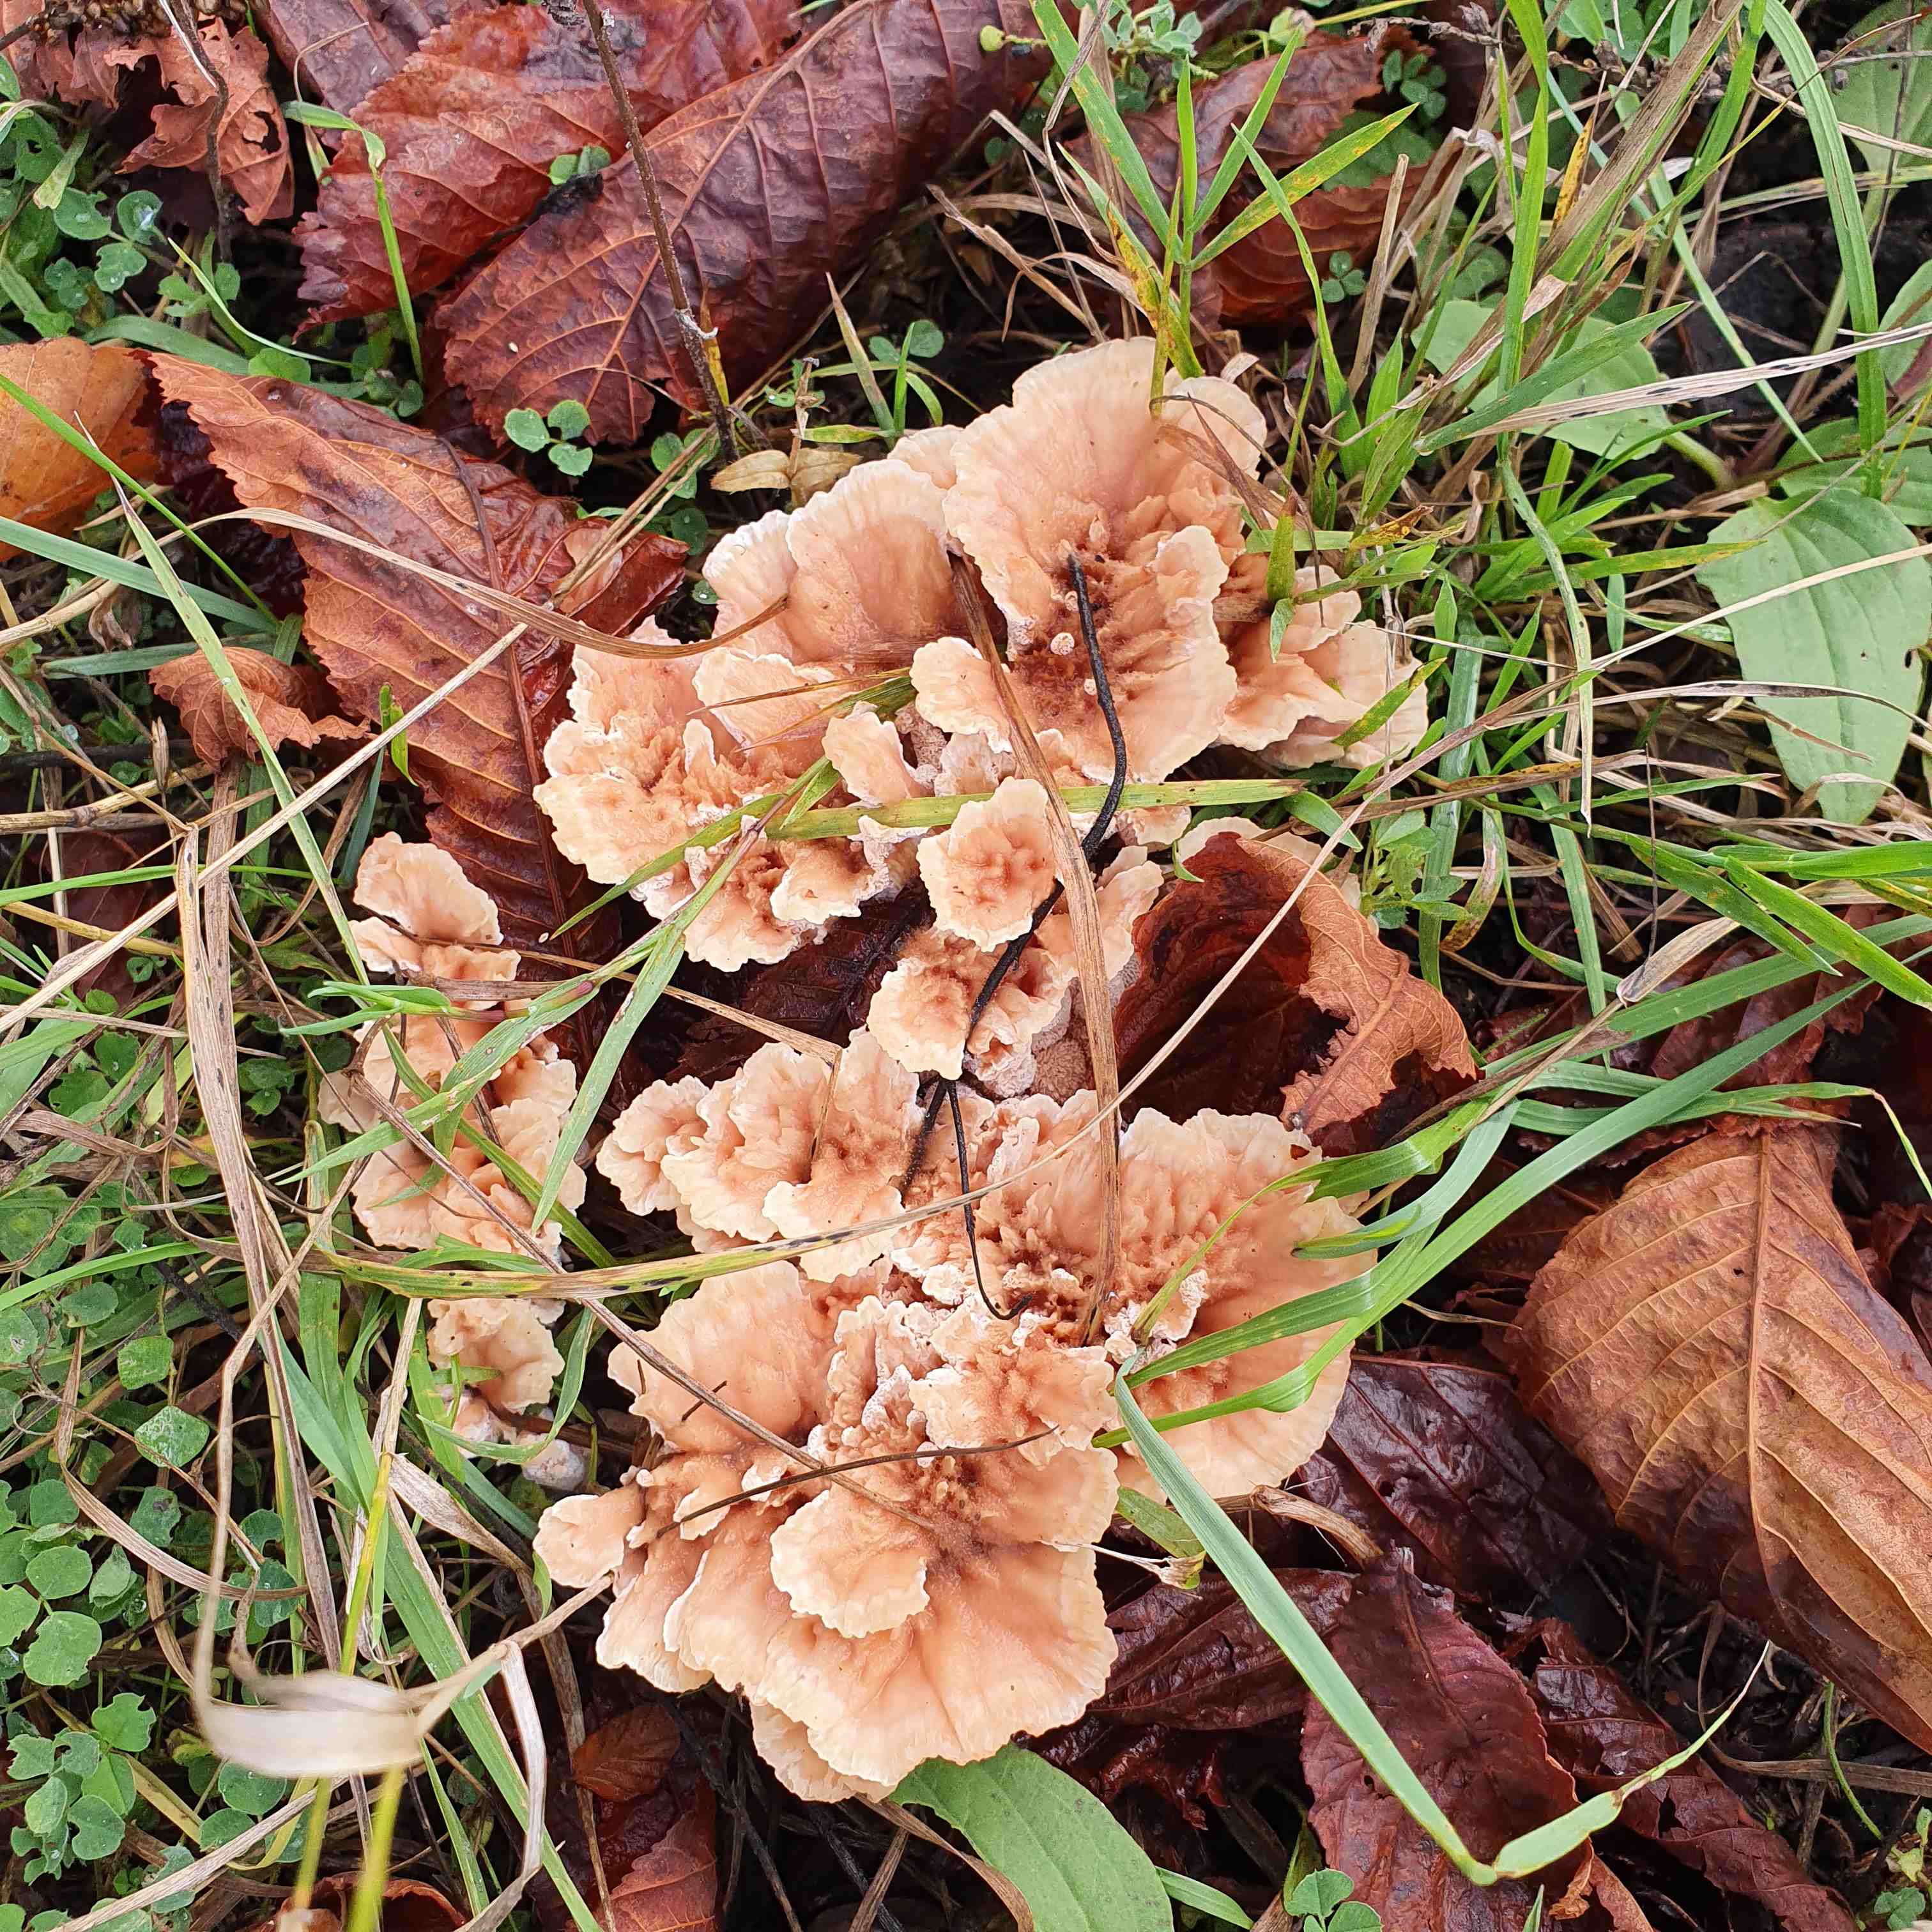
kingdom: Fungi
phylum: Basidiomycota
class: Agaricomycetes
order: Polyporales
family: Podoscyphaceae
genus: Abortiporus
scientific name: Abortiporus biennis
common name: rødmende pjalteporesvamp
